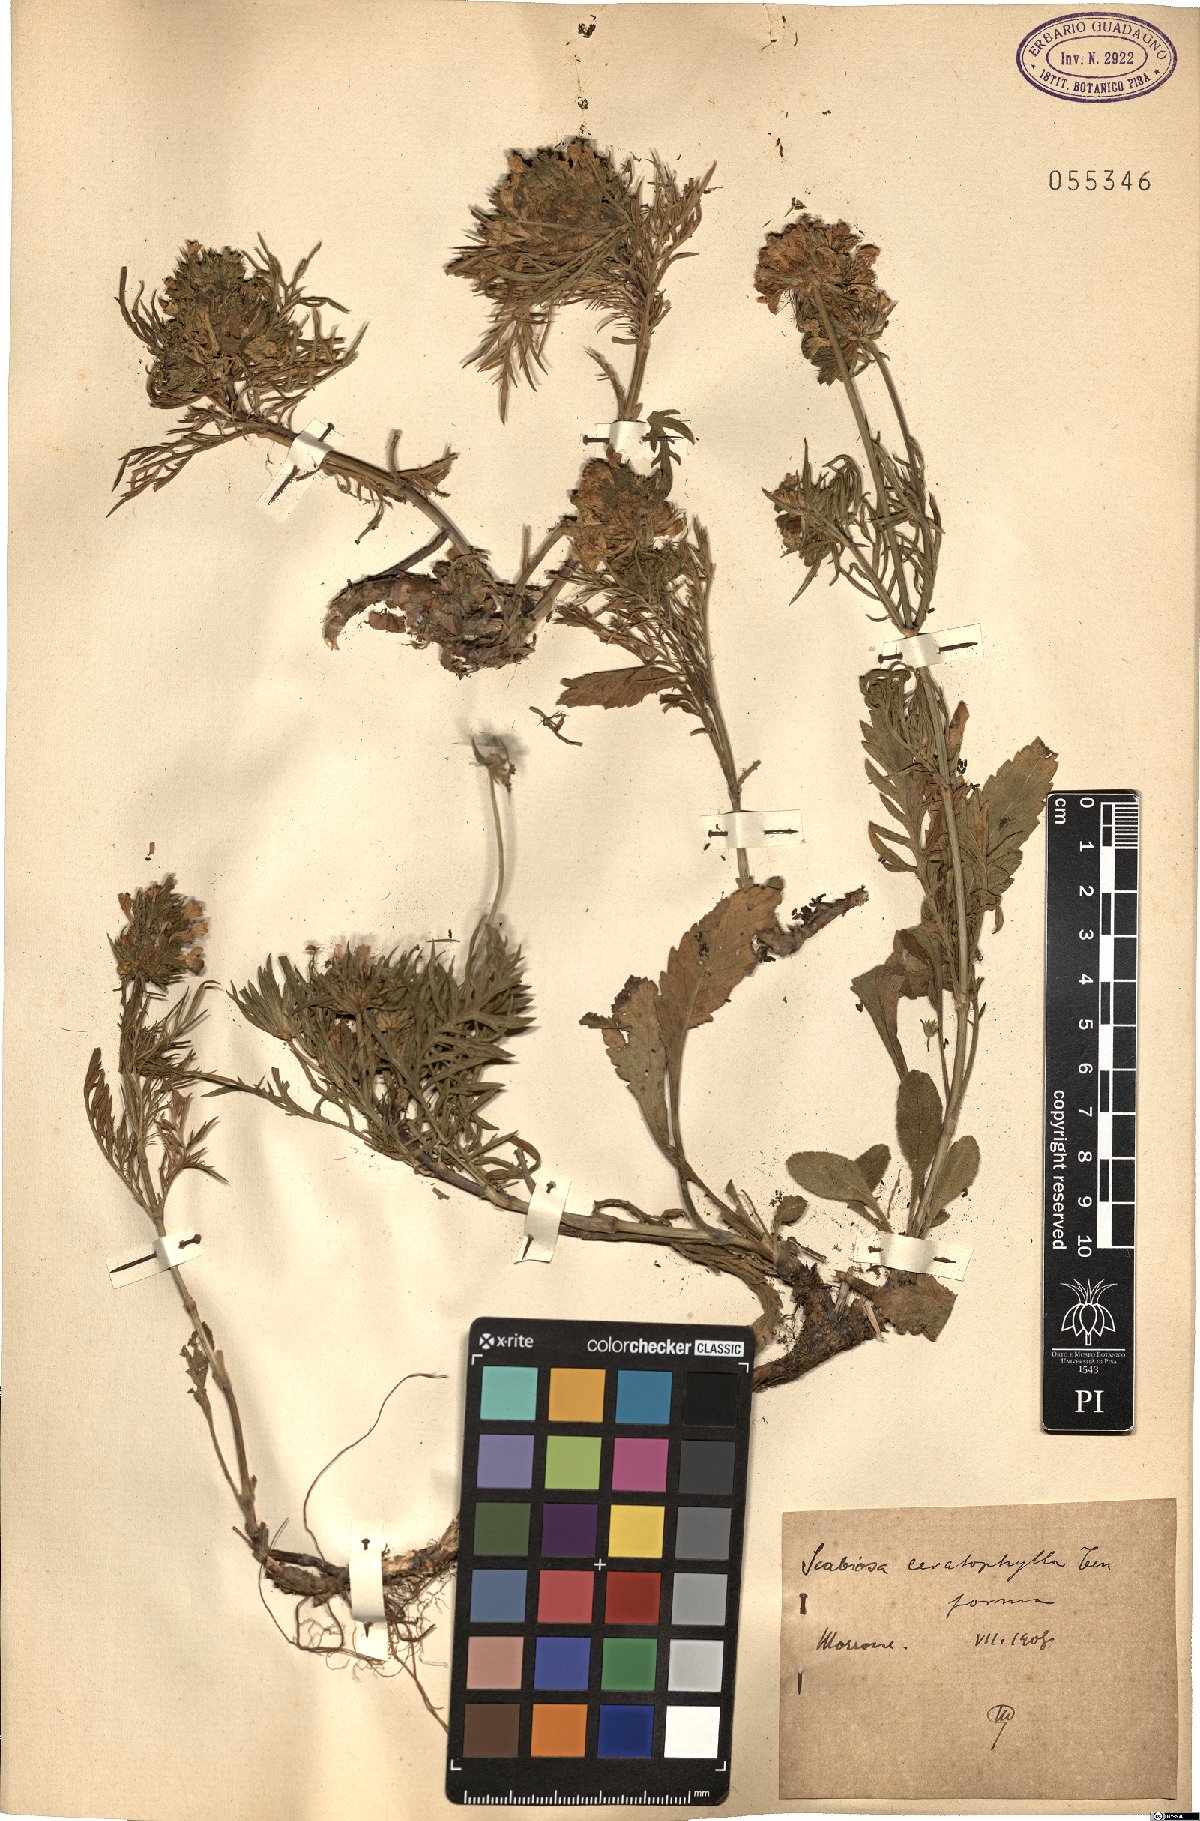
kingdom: Plantae
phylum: Tracheophyta
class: Magnoliopsida
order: Dipsacales
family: Caprifoliaceae
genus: Scabiosa
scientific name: Scabiosa triandra
